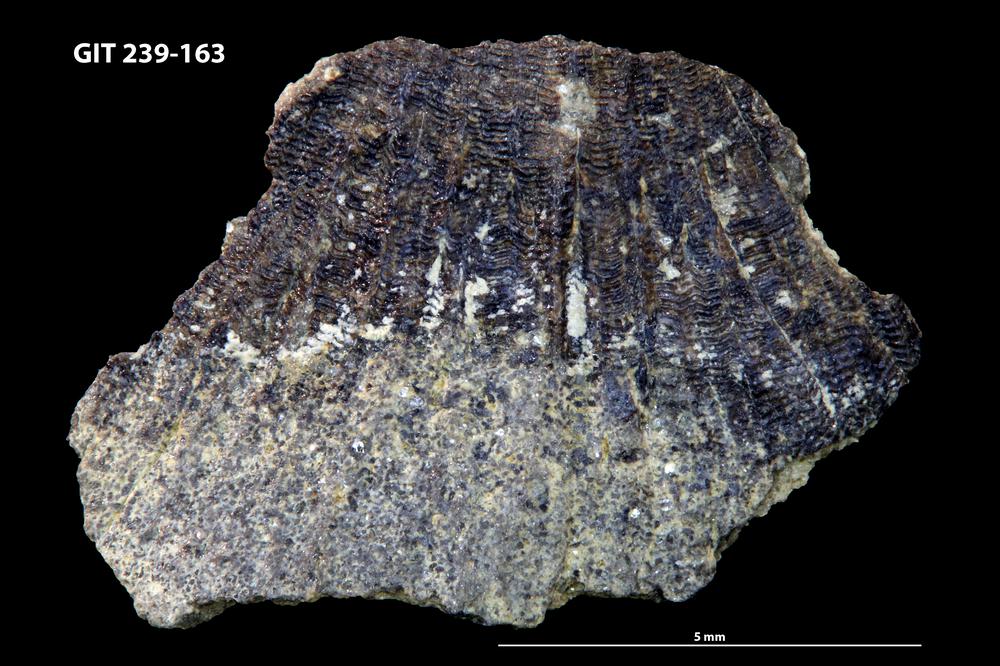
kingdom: Animalia
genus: Estoniadiscus
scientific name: Estoniadiscus
